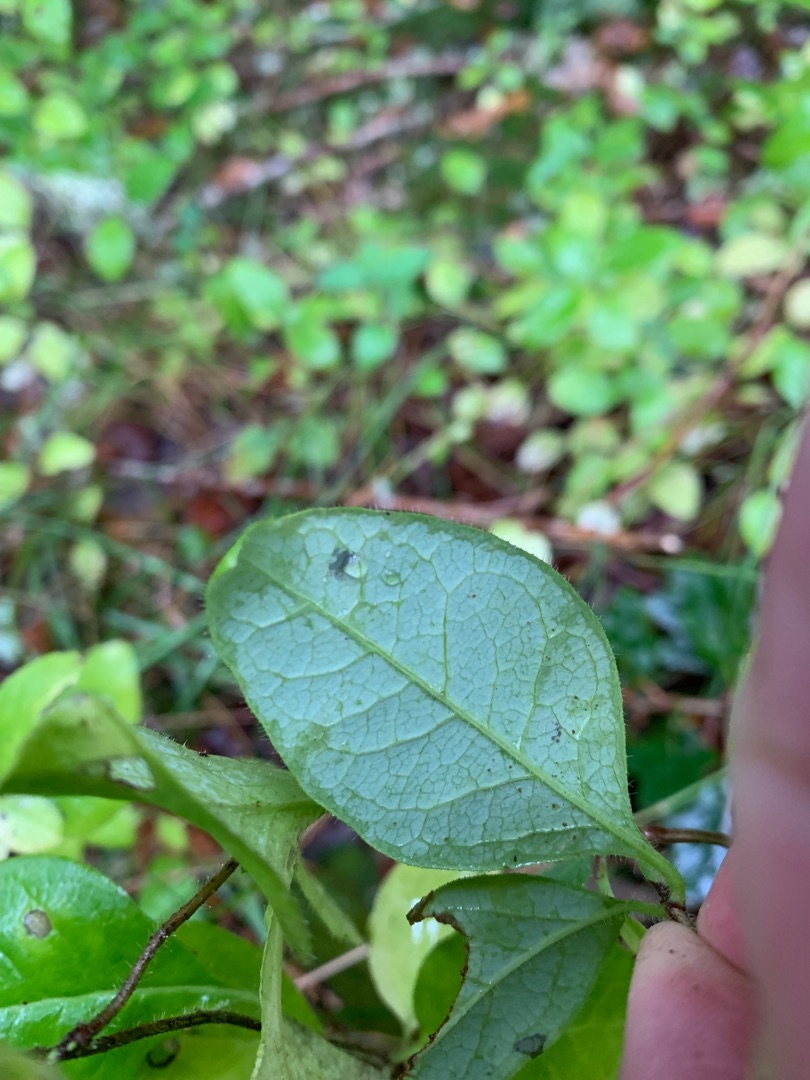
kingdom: Plantae
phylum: Tracheophyta
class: Magnoliopsida
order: Dipsacales
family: Caprifoliaceae
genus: Lonicera
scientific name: Lonicera periclymenum
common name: Almindelig gedeblad
